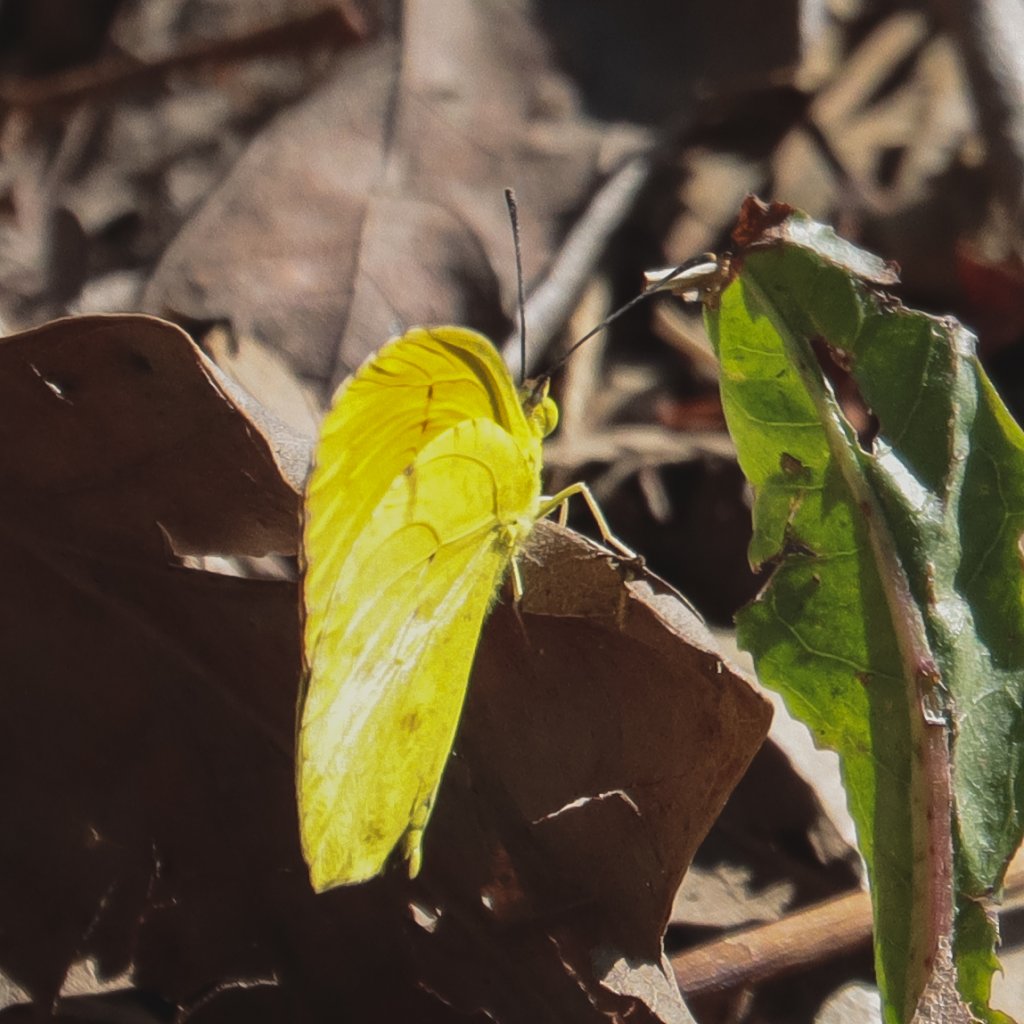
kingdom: Animalia
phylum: Arthropoda
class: Insecta
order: Lepidoptera
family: Pieridae
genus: Abaeis
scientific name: Abaeis nicippe
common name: Sleepy Orange
